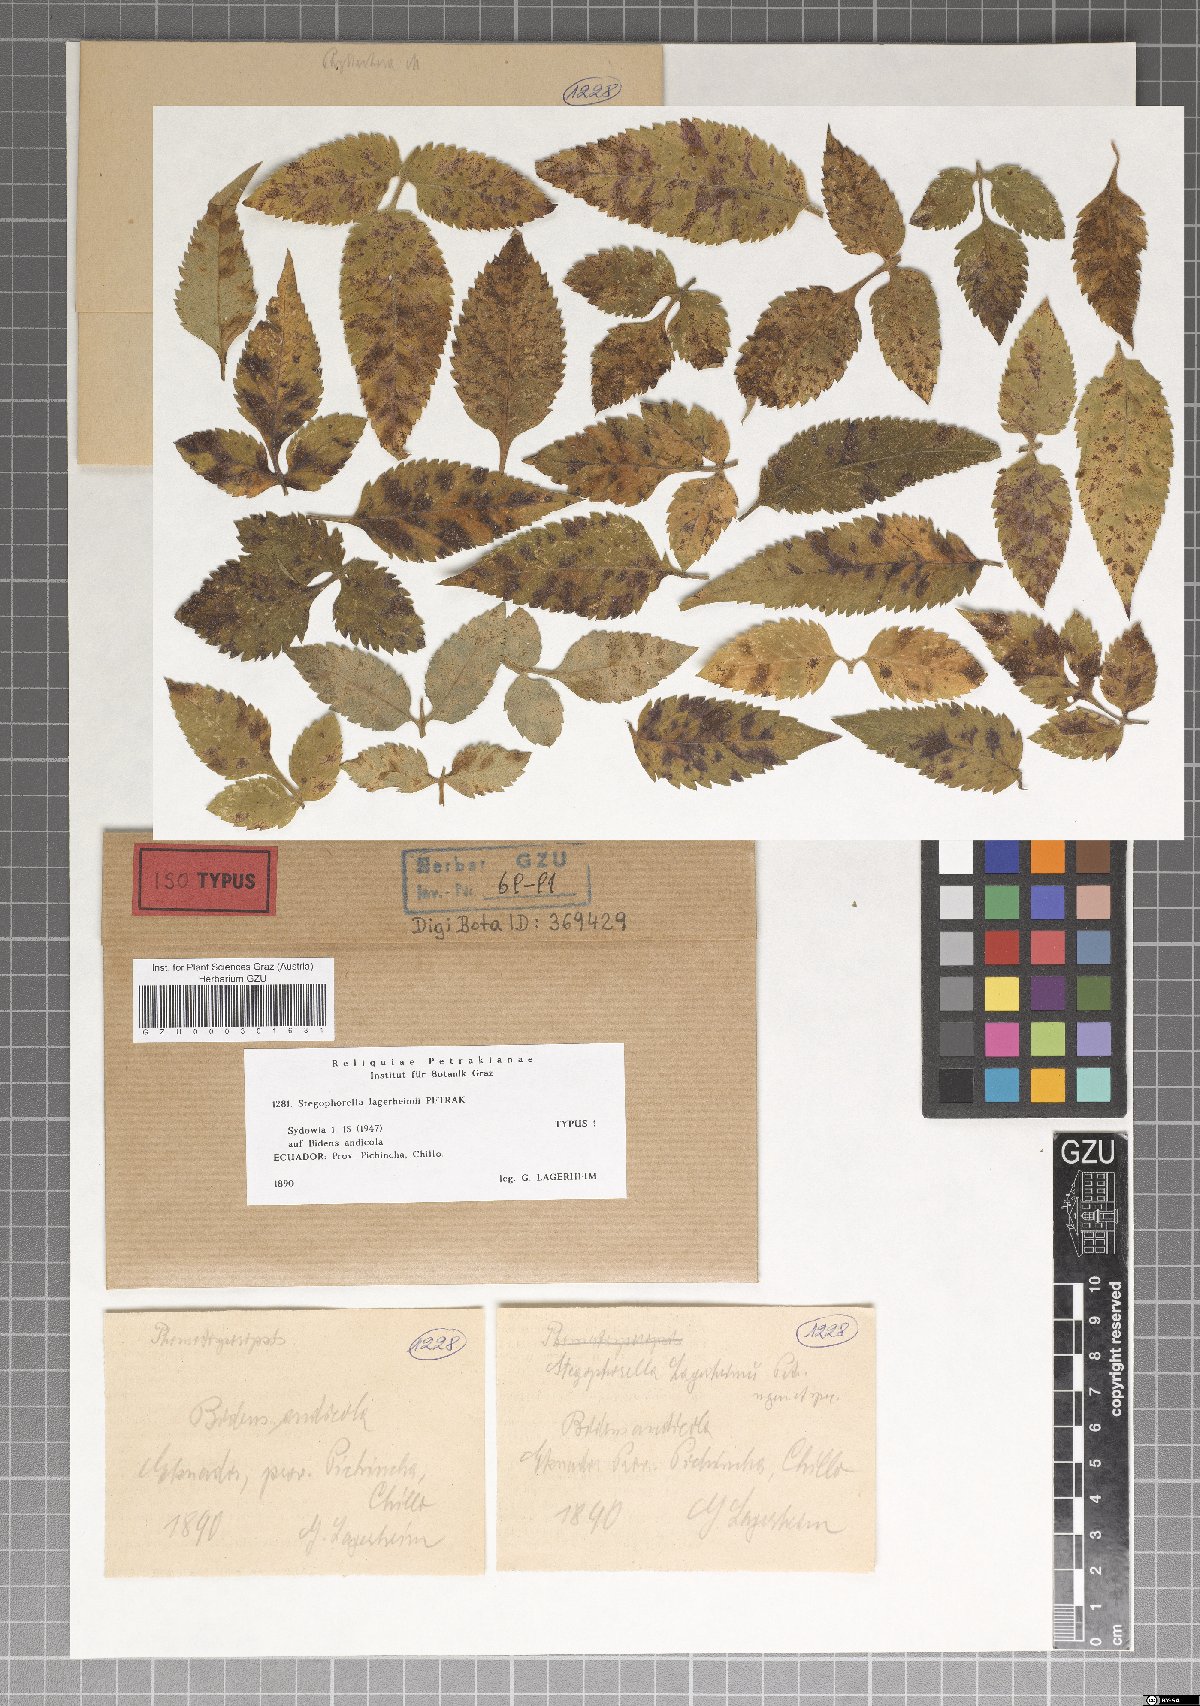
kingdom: Fungi
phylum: Ascomycota
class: Sordariomycetes
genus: Stegophorella
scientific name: Stegophorella lagerheimii
